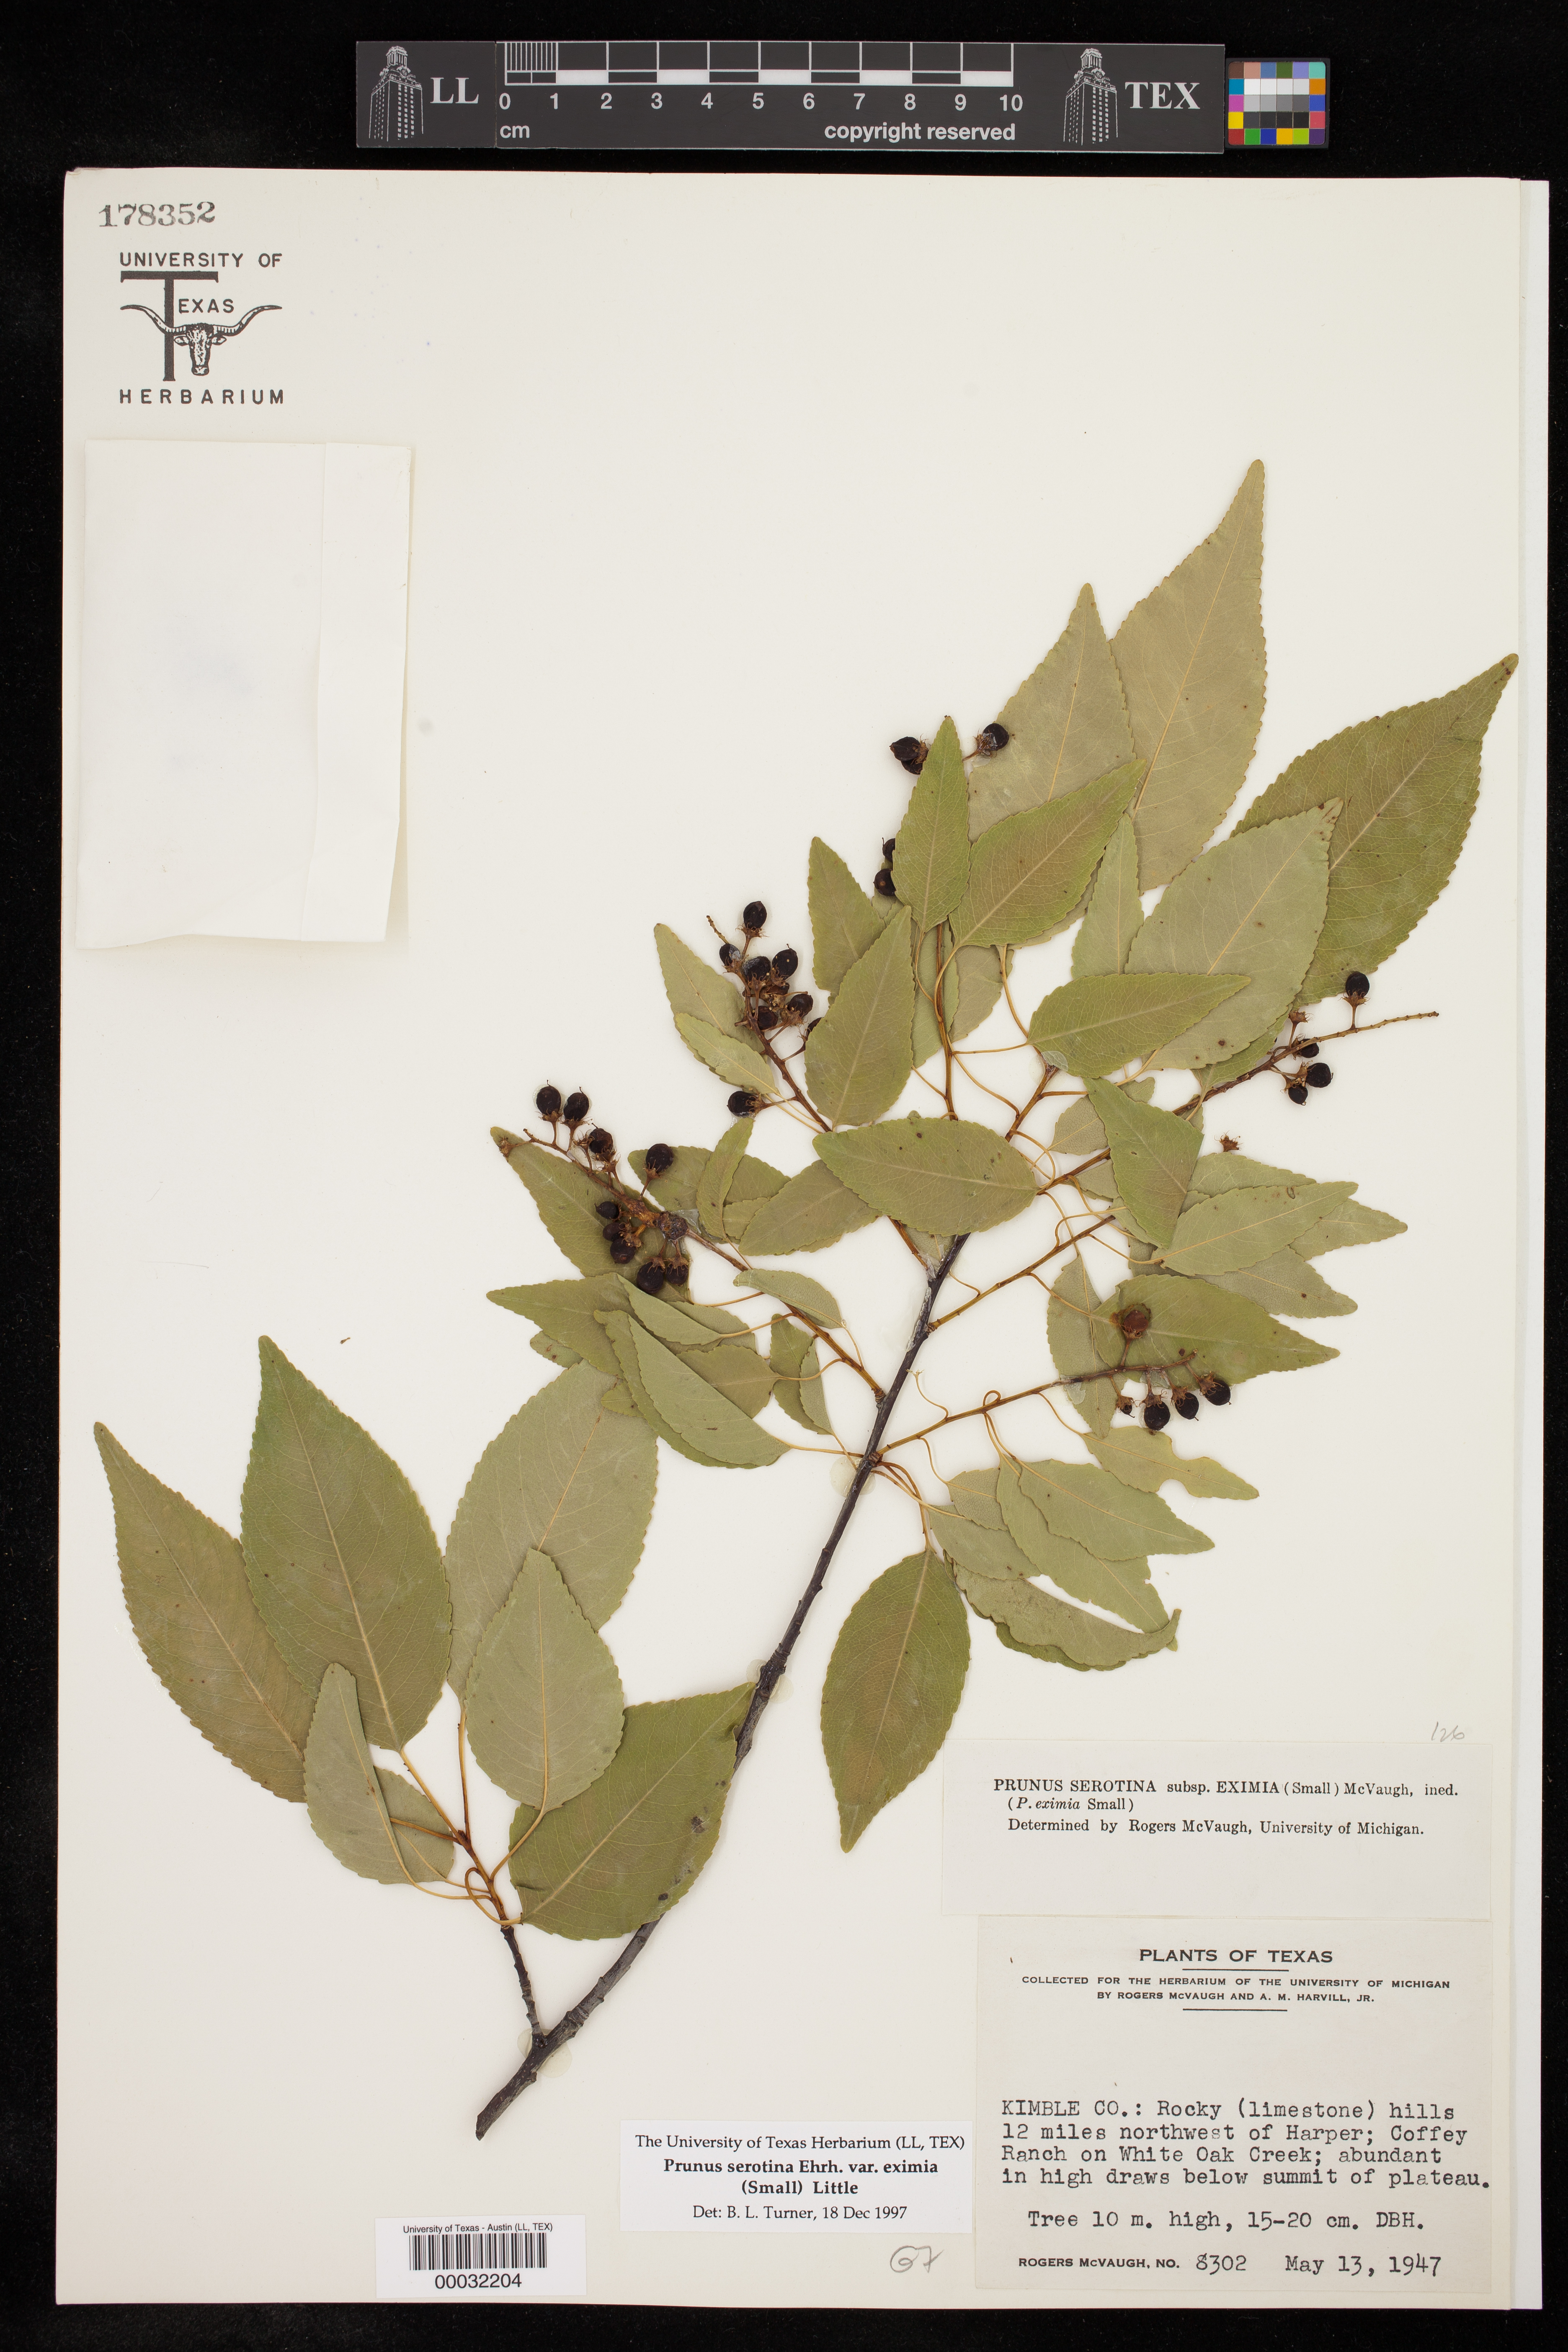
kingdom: Plantae
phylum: Tracheophyta
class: Magnoliopsida
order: Rosales
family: Rosaceae
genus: Prunus
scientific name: Prunus serotina
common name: Black cherry
